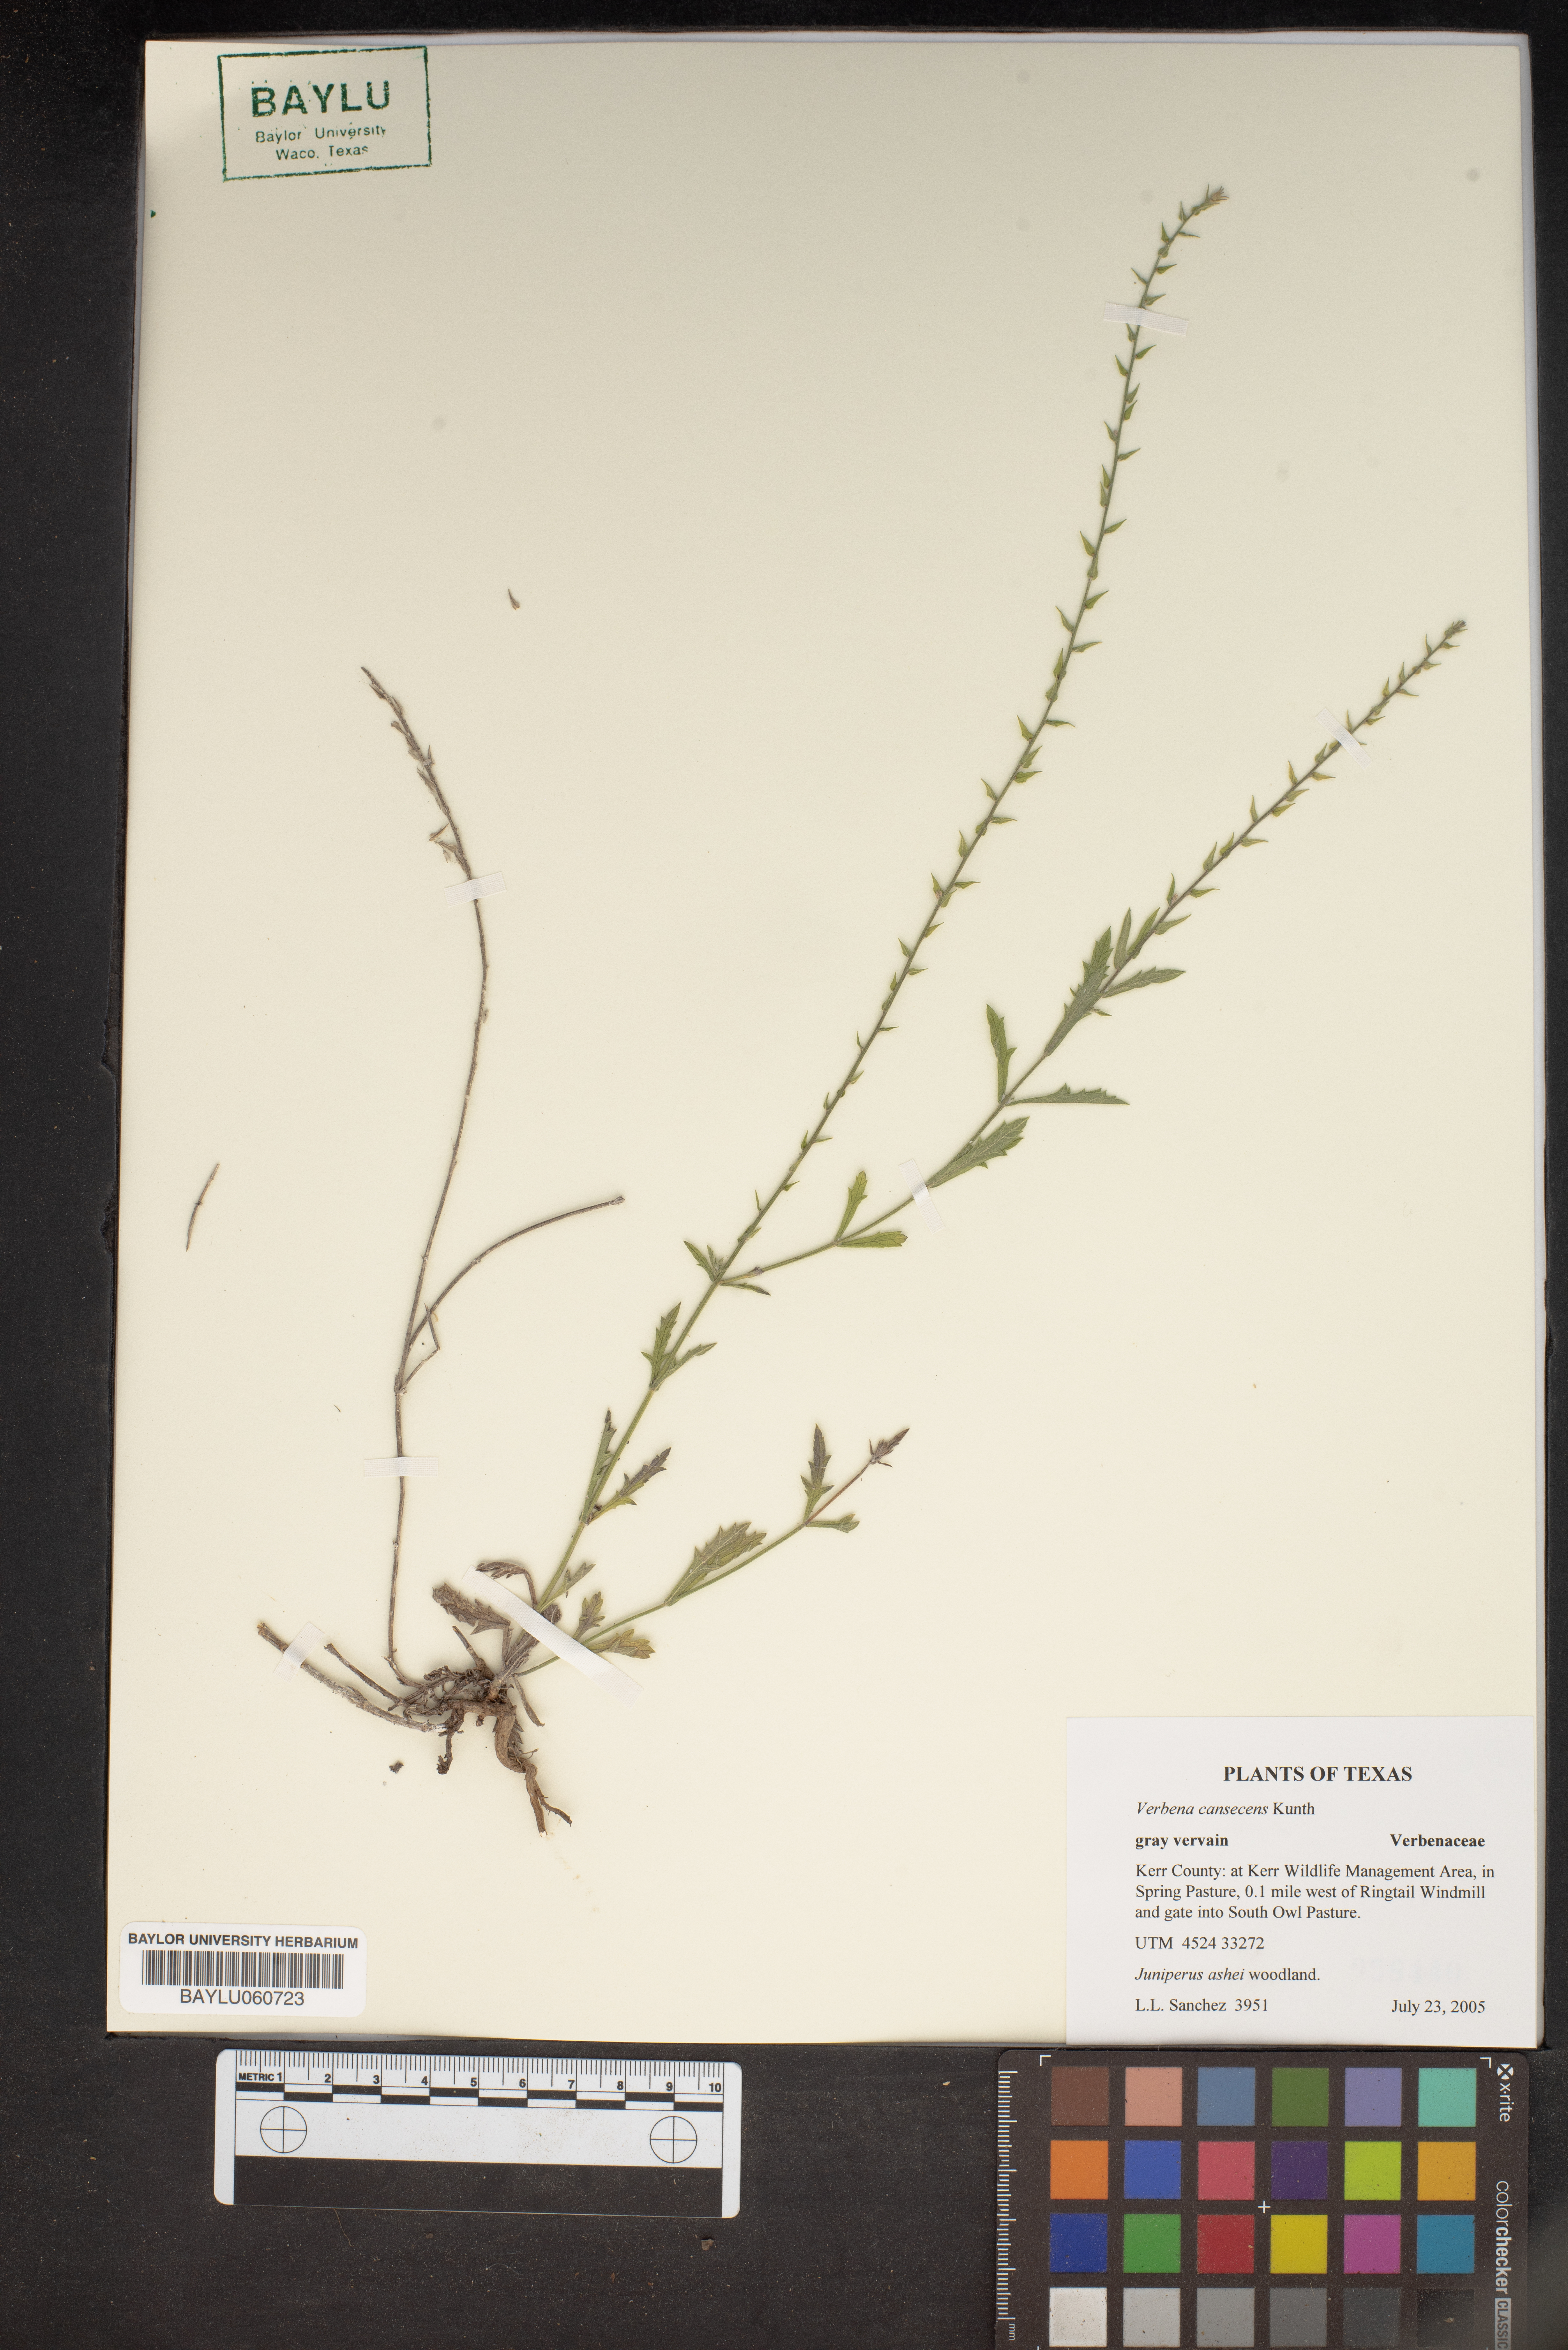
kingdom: Plantae
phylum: Tracheophyta
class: Magnoliopsida
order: Lamiales
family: Verbenaceae
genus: Verbena
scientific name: Verbena canescens
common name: Gray vervain
